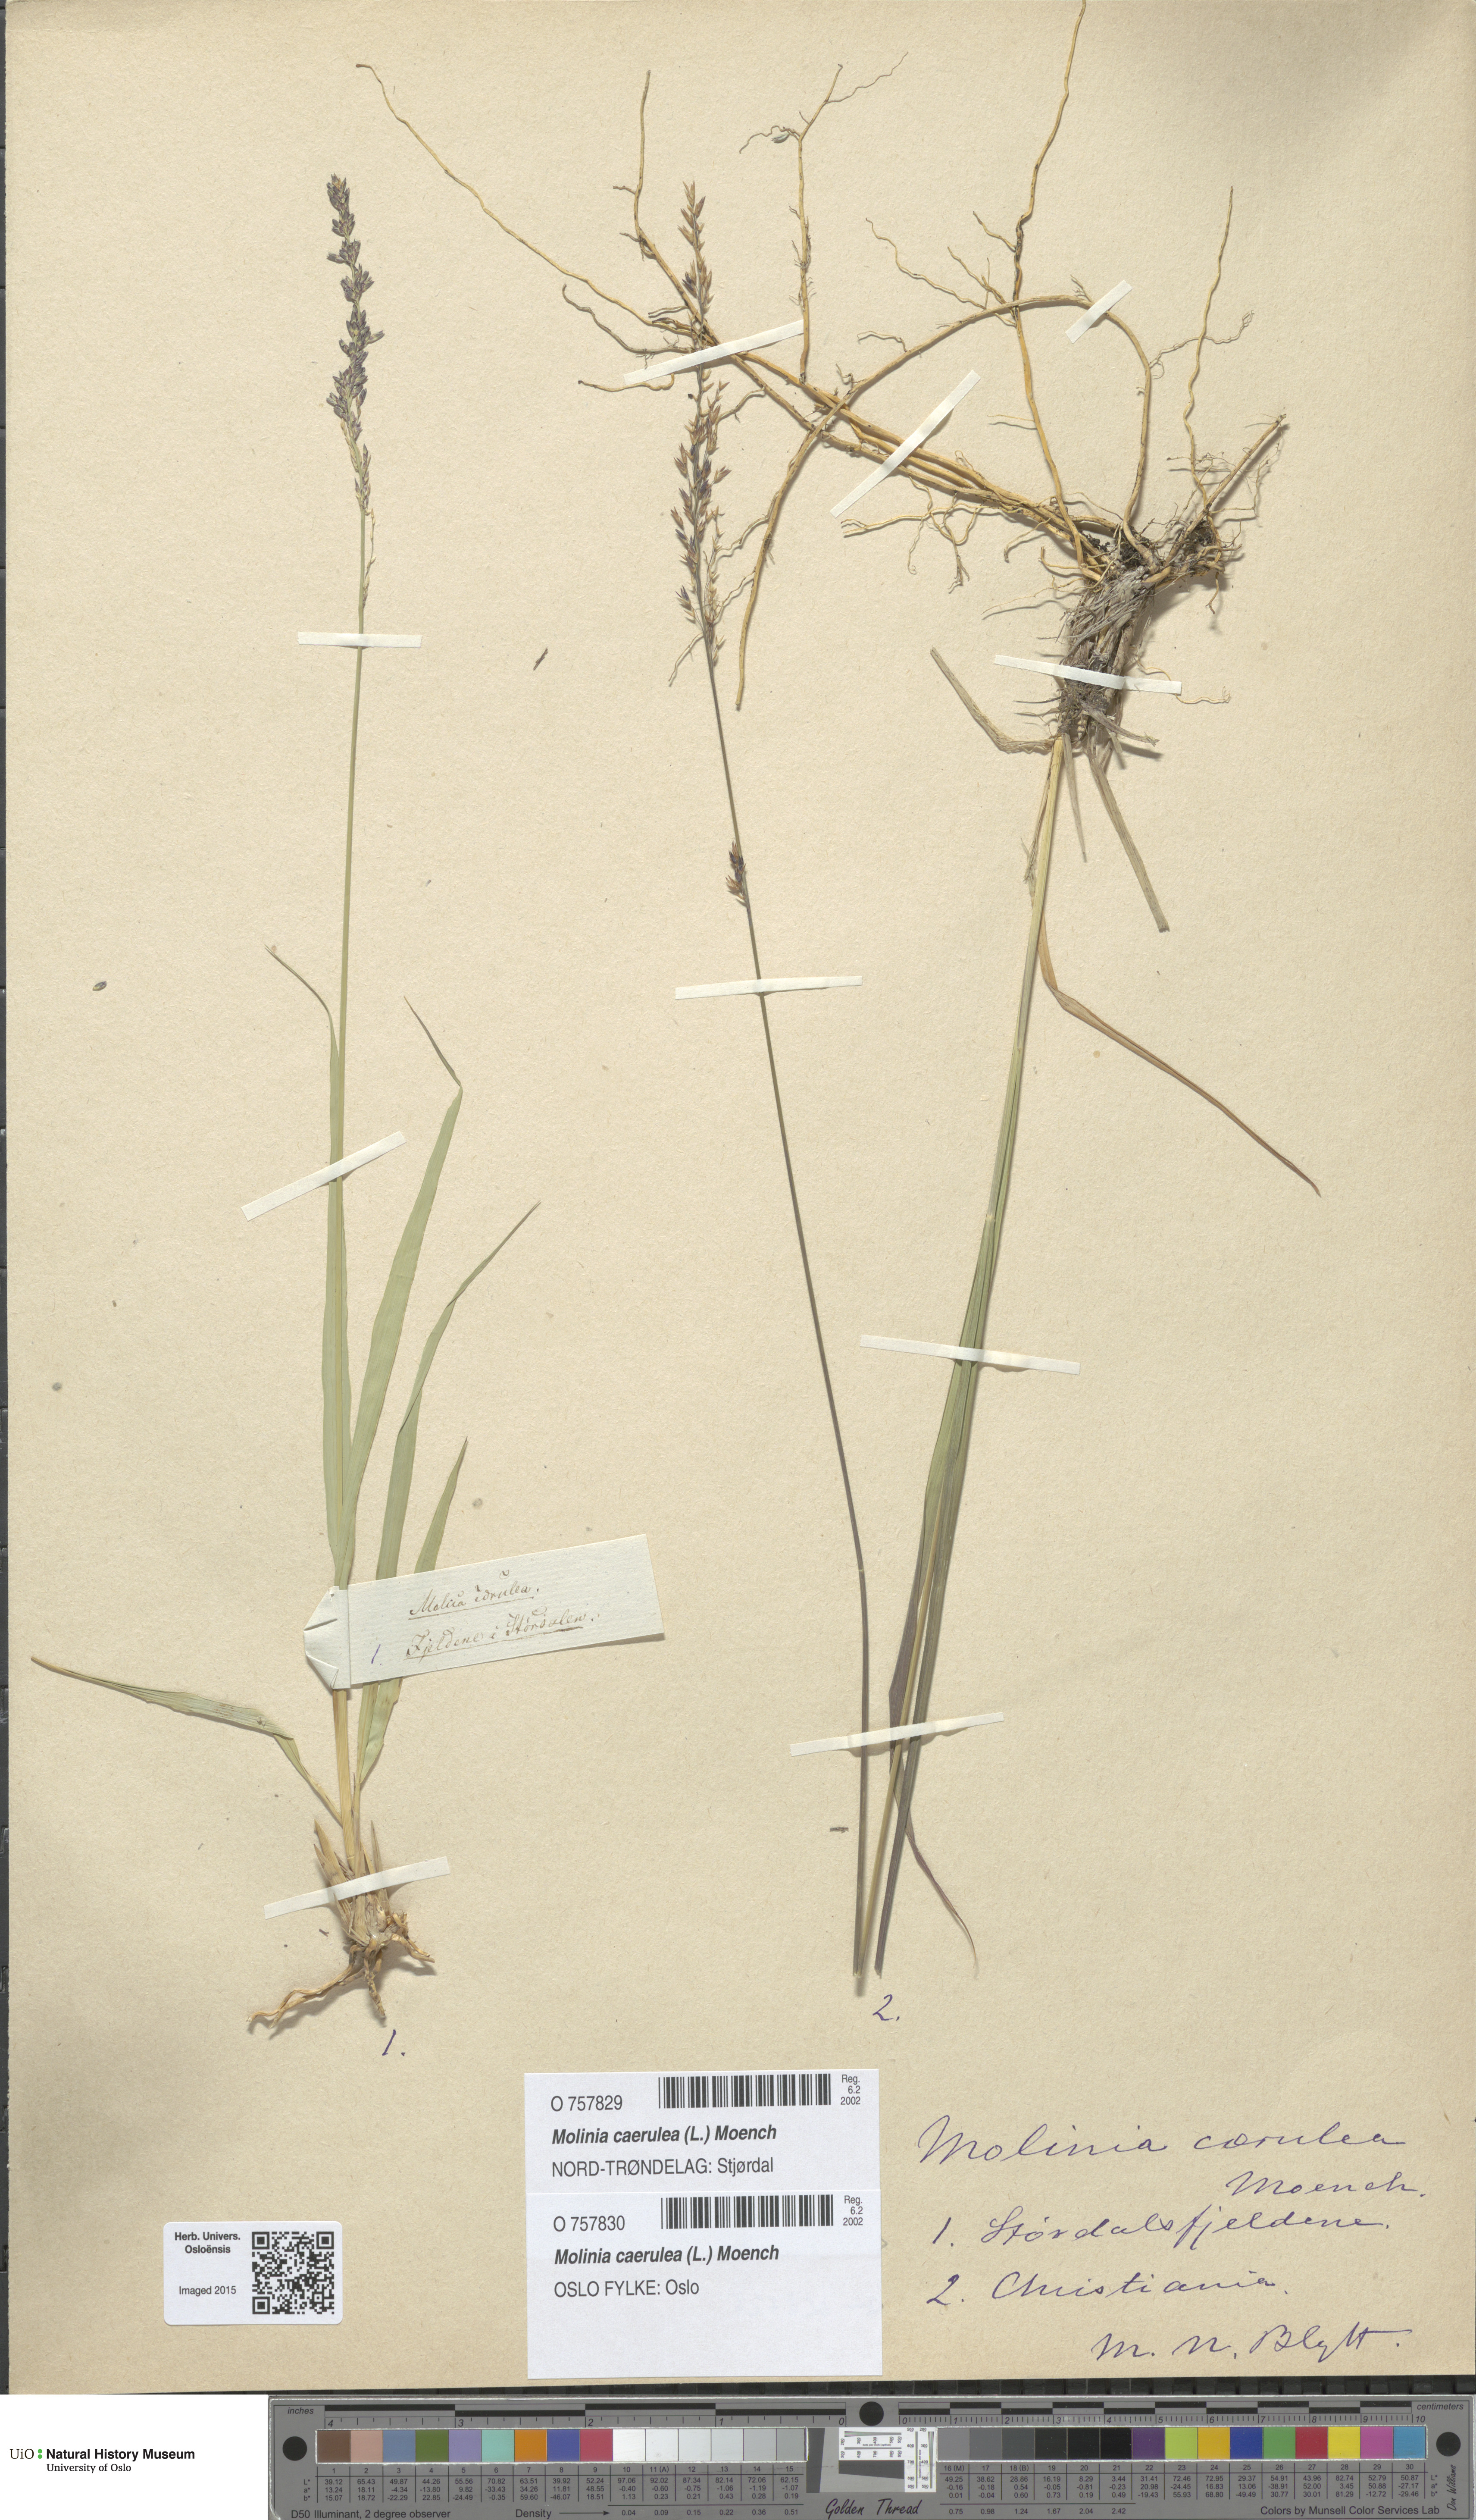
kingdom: Plantae
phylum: Tracheophyta
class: Liliopsida
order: Poales
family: Poaceae
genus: Molinia
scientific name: Molinia caerulea
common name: Purple moor-grass
